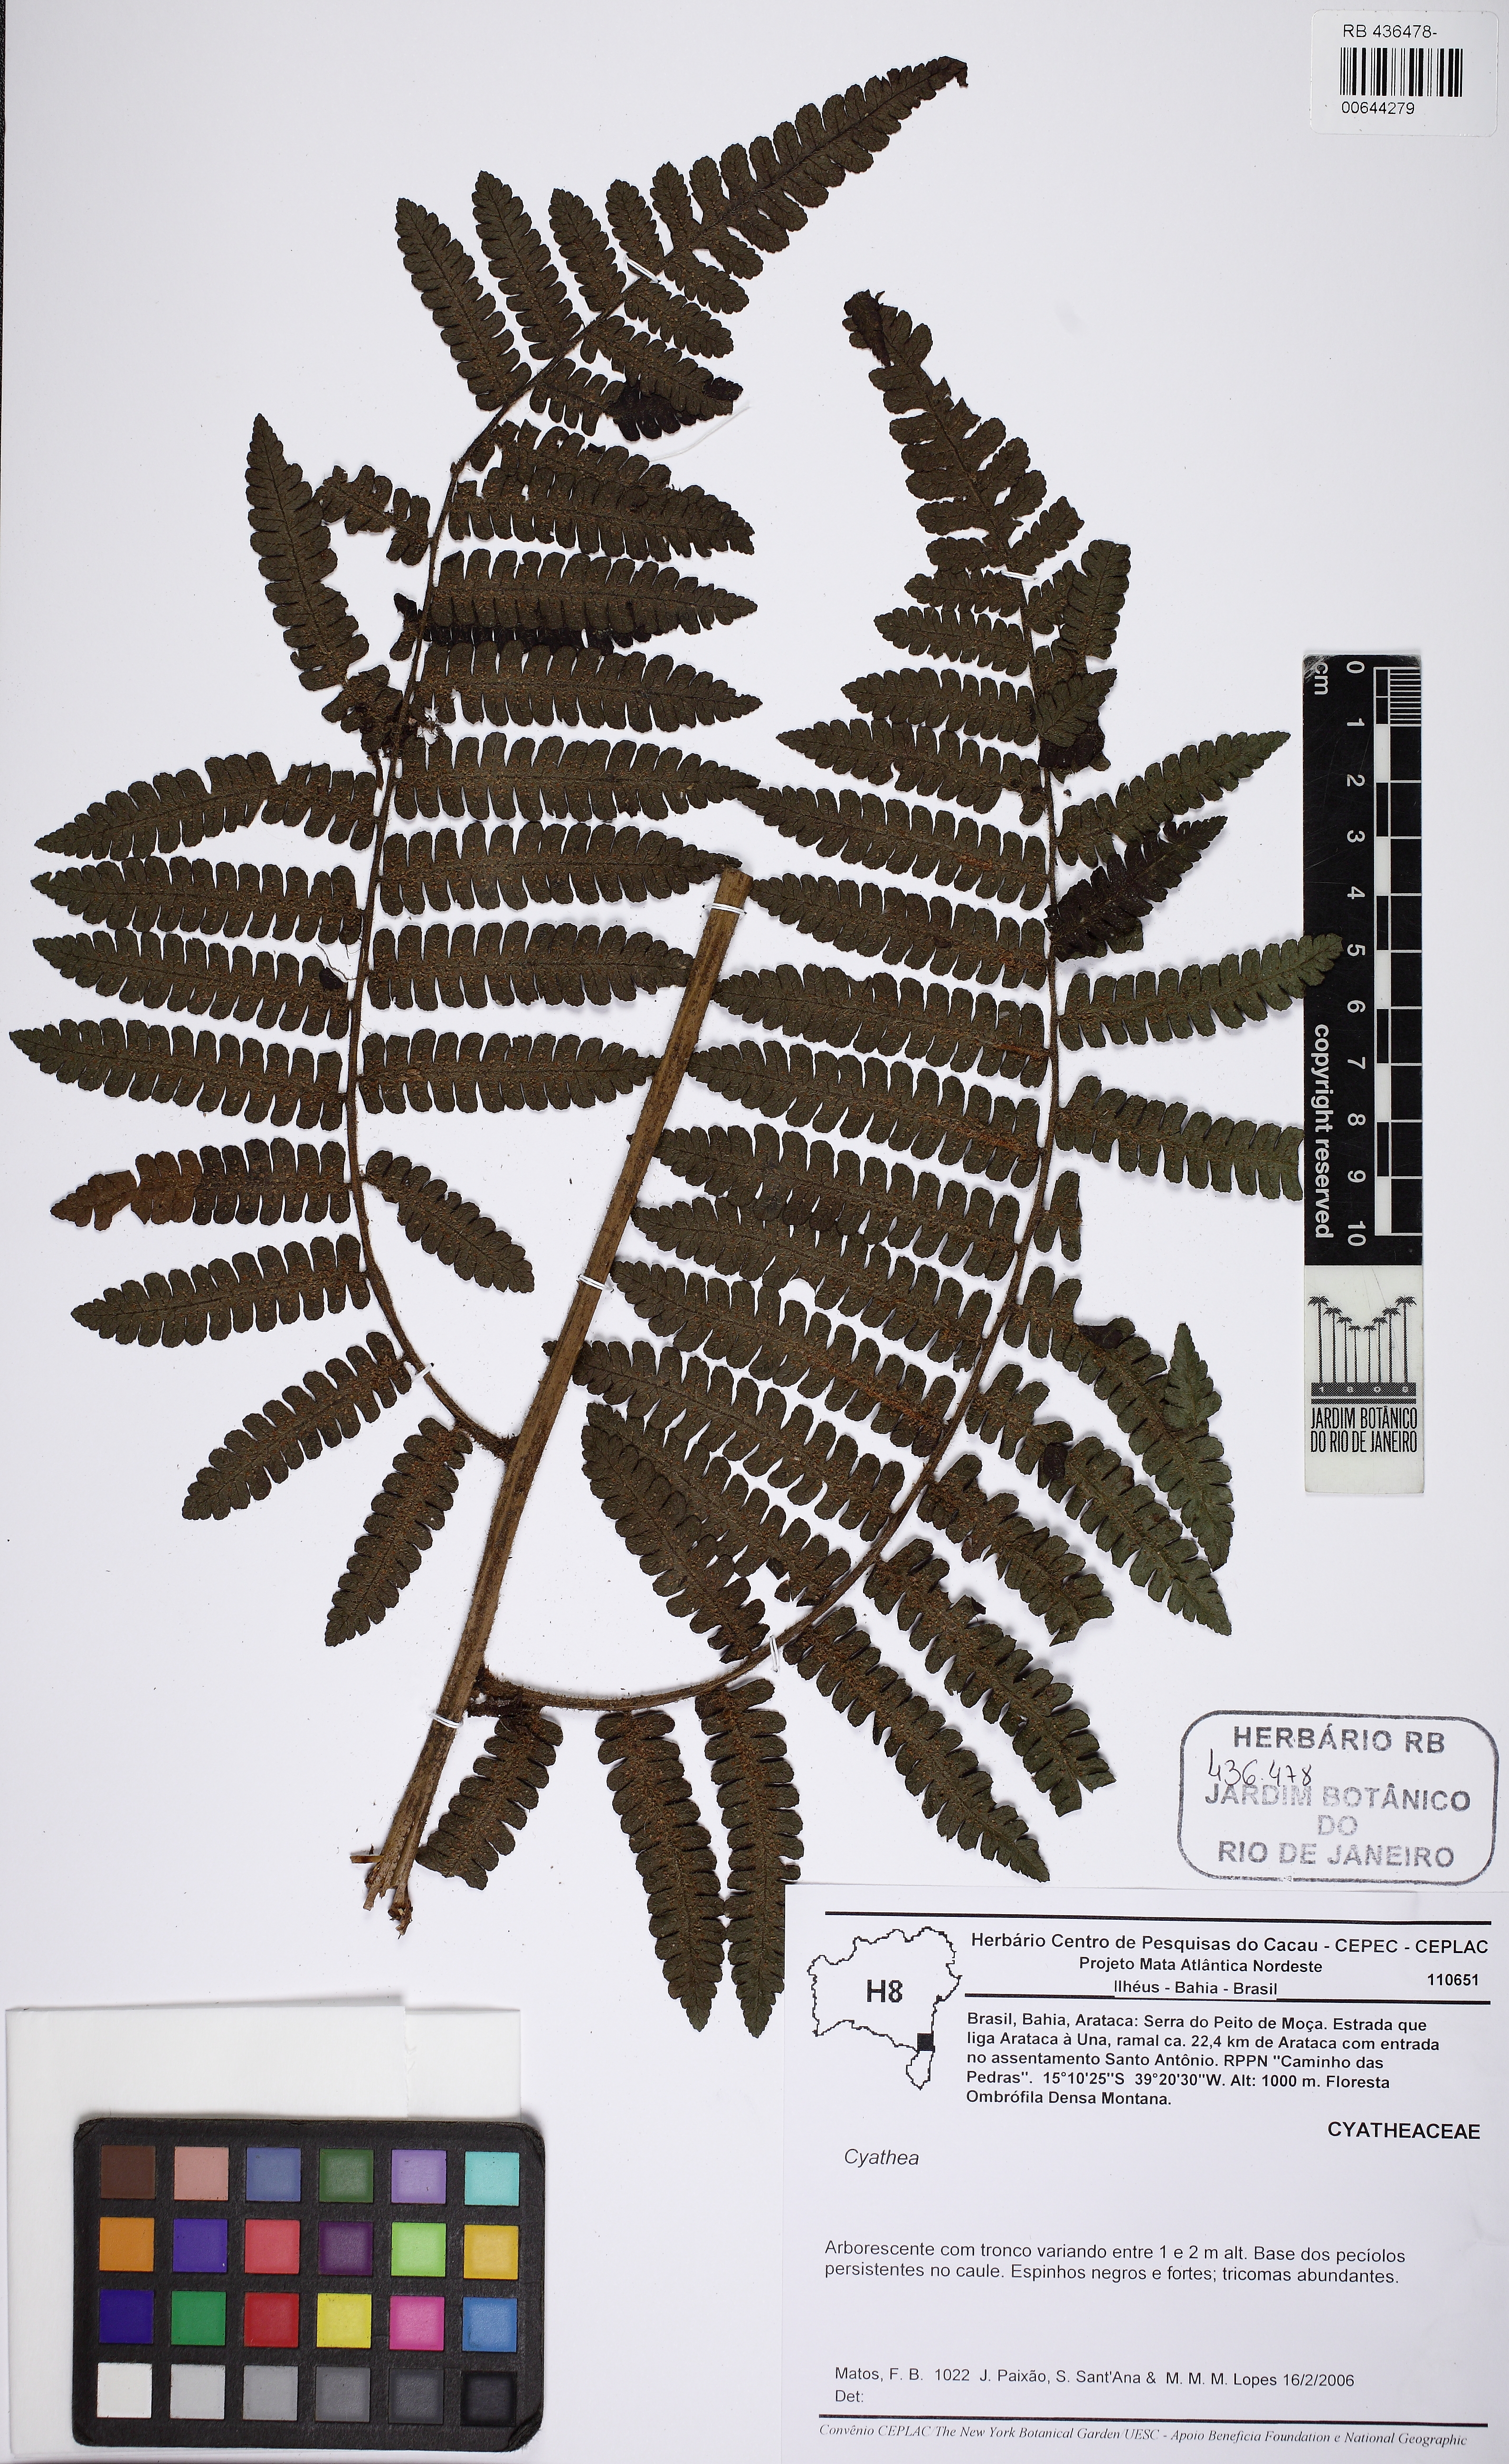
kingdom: Plantae
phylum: Tracheophyta
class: Polypodiopsida
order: Cyatheales
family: Cyatheaceae
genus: Cyathea
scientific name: Cyathea
